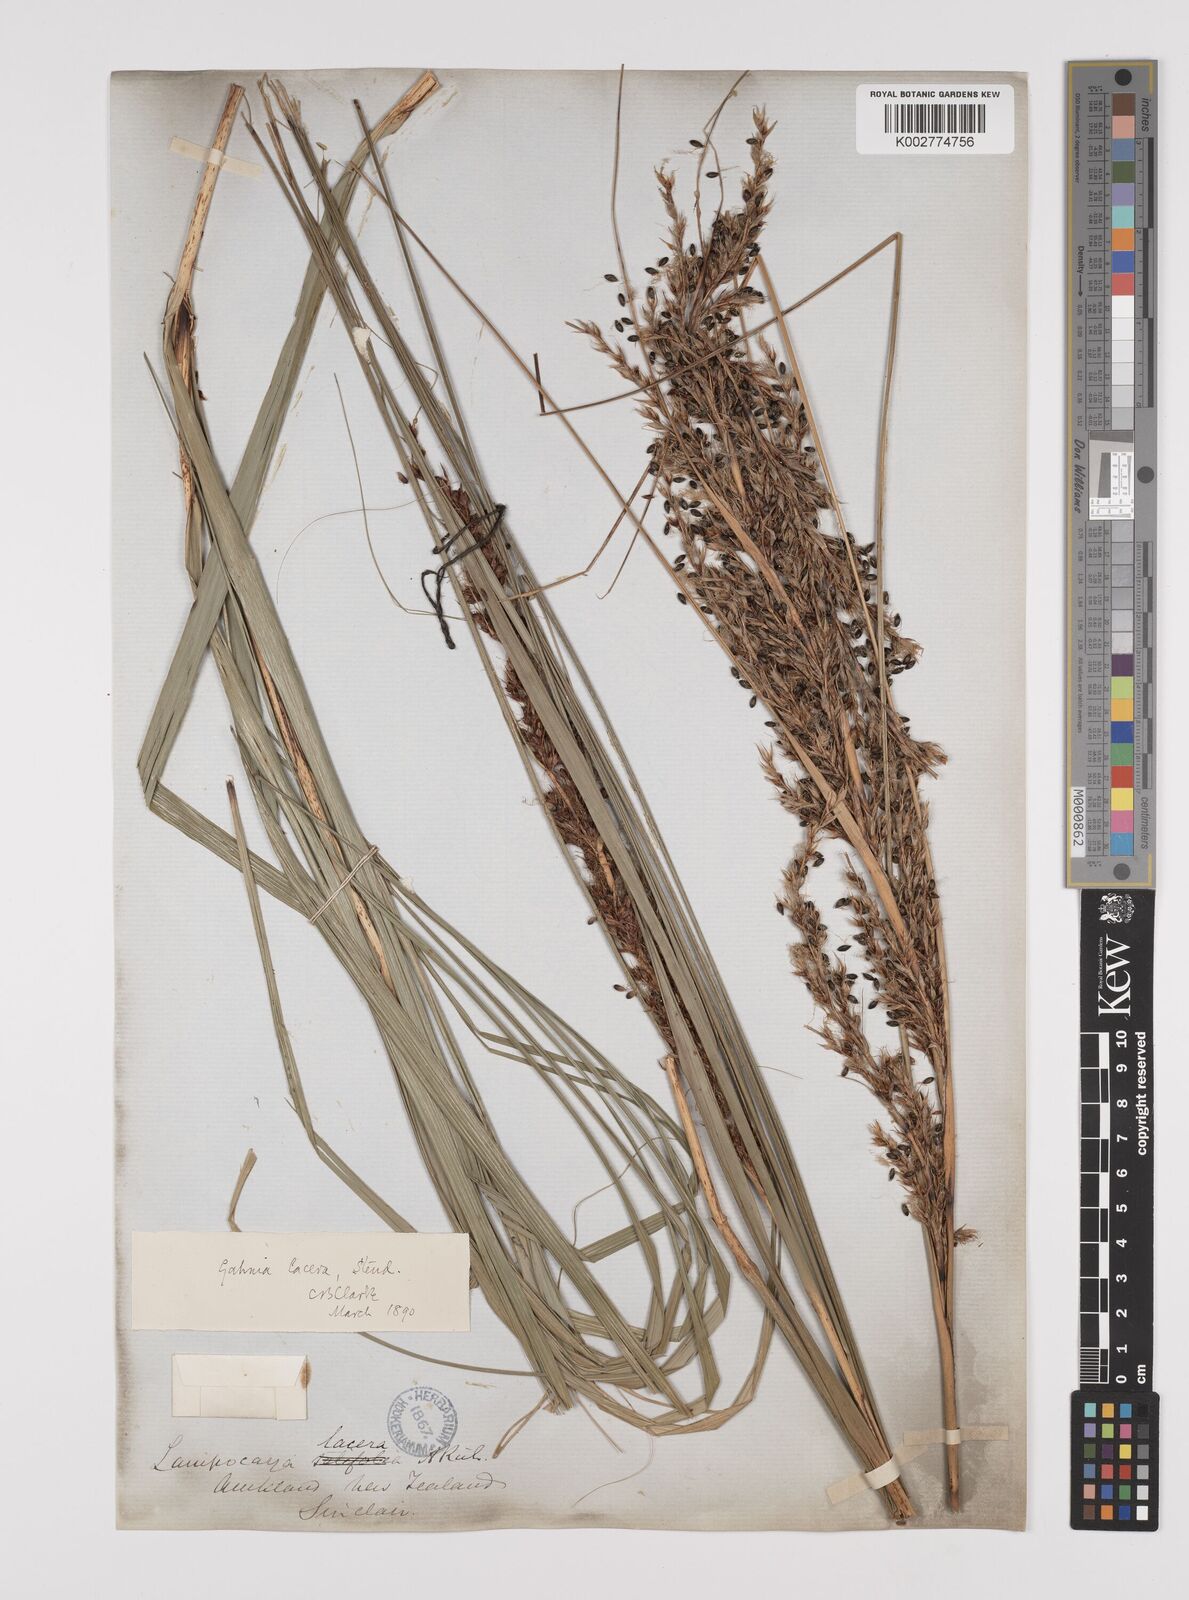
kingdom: Plantae
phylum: Tracheophyta
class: Liliopsida
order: Poales
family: Cyperaceae
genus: Gahnia
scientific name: Gahnia lacera
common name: Sawsedge
